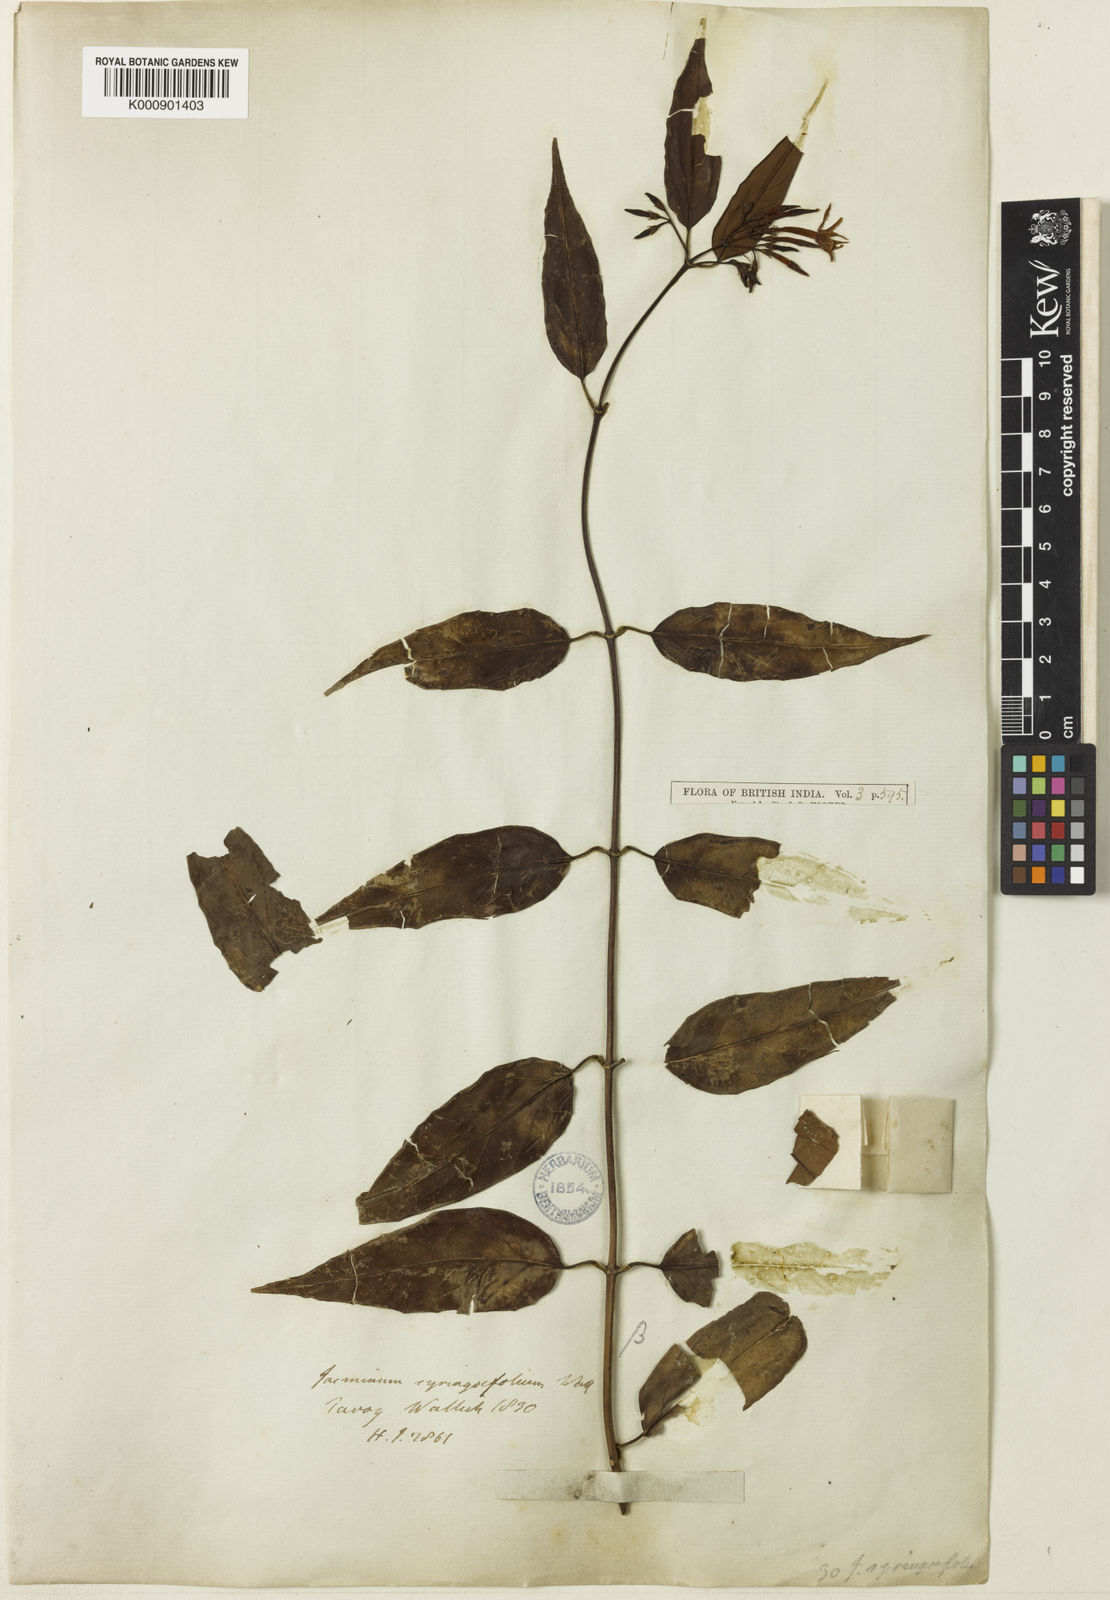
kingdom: Plantae
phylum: Tracheophyta
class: Magnoliopsida
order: Lamiales
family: Oleaceae
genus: Jasminum
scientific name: Jasminum
